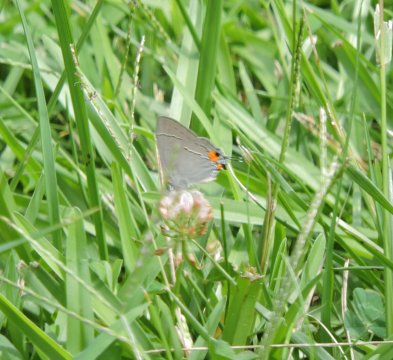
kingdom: Animalia
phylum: Arthropoda
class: Insecta
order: Lepidoptera
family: Lycaenidae
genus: Strymon
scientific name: Strymon melinus
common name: Gray Hairstreak
